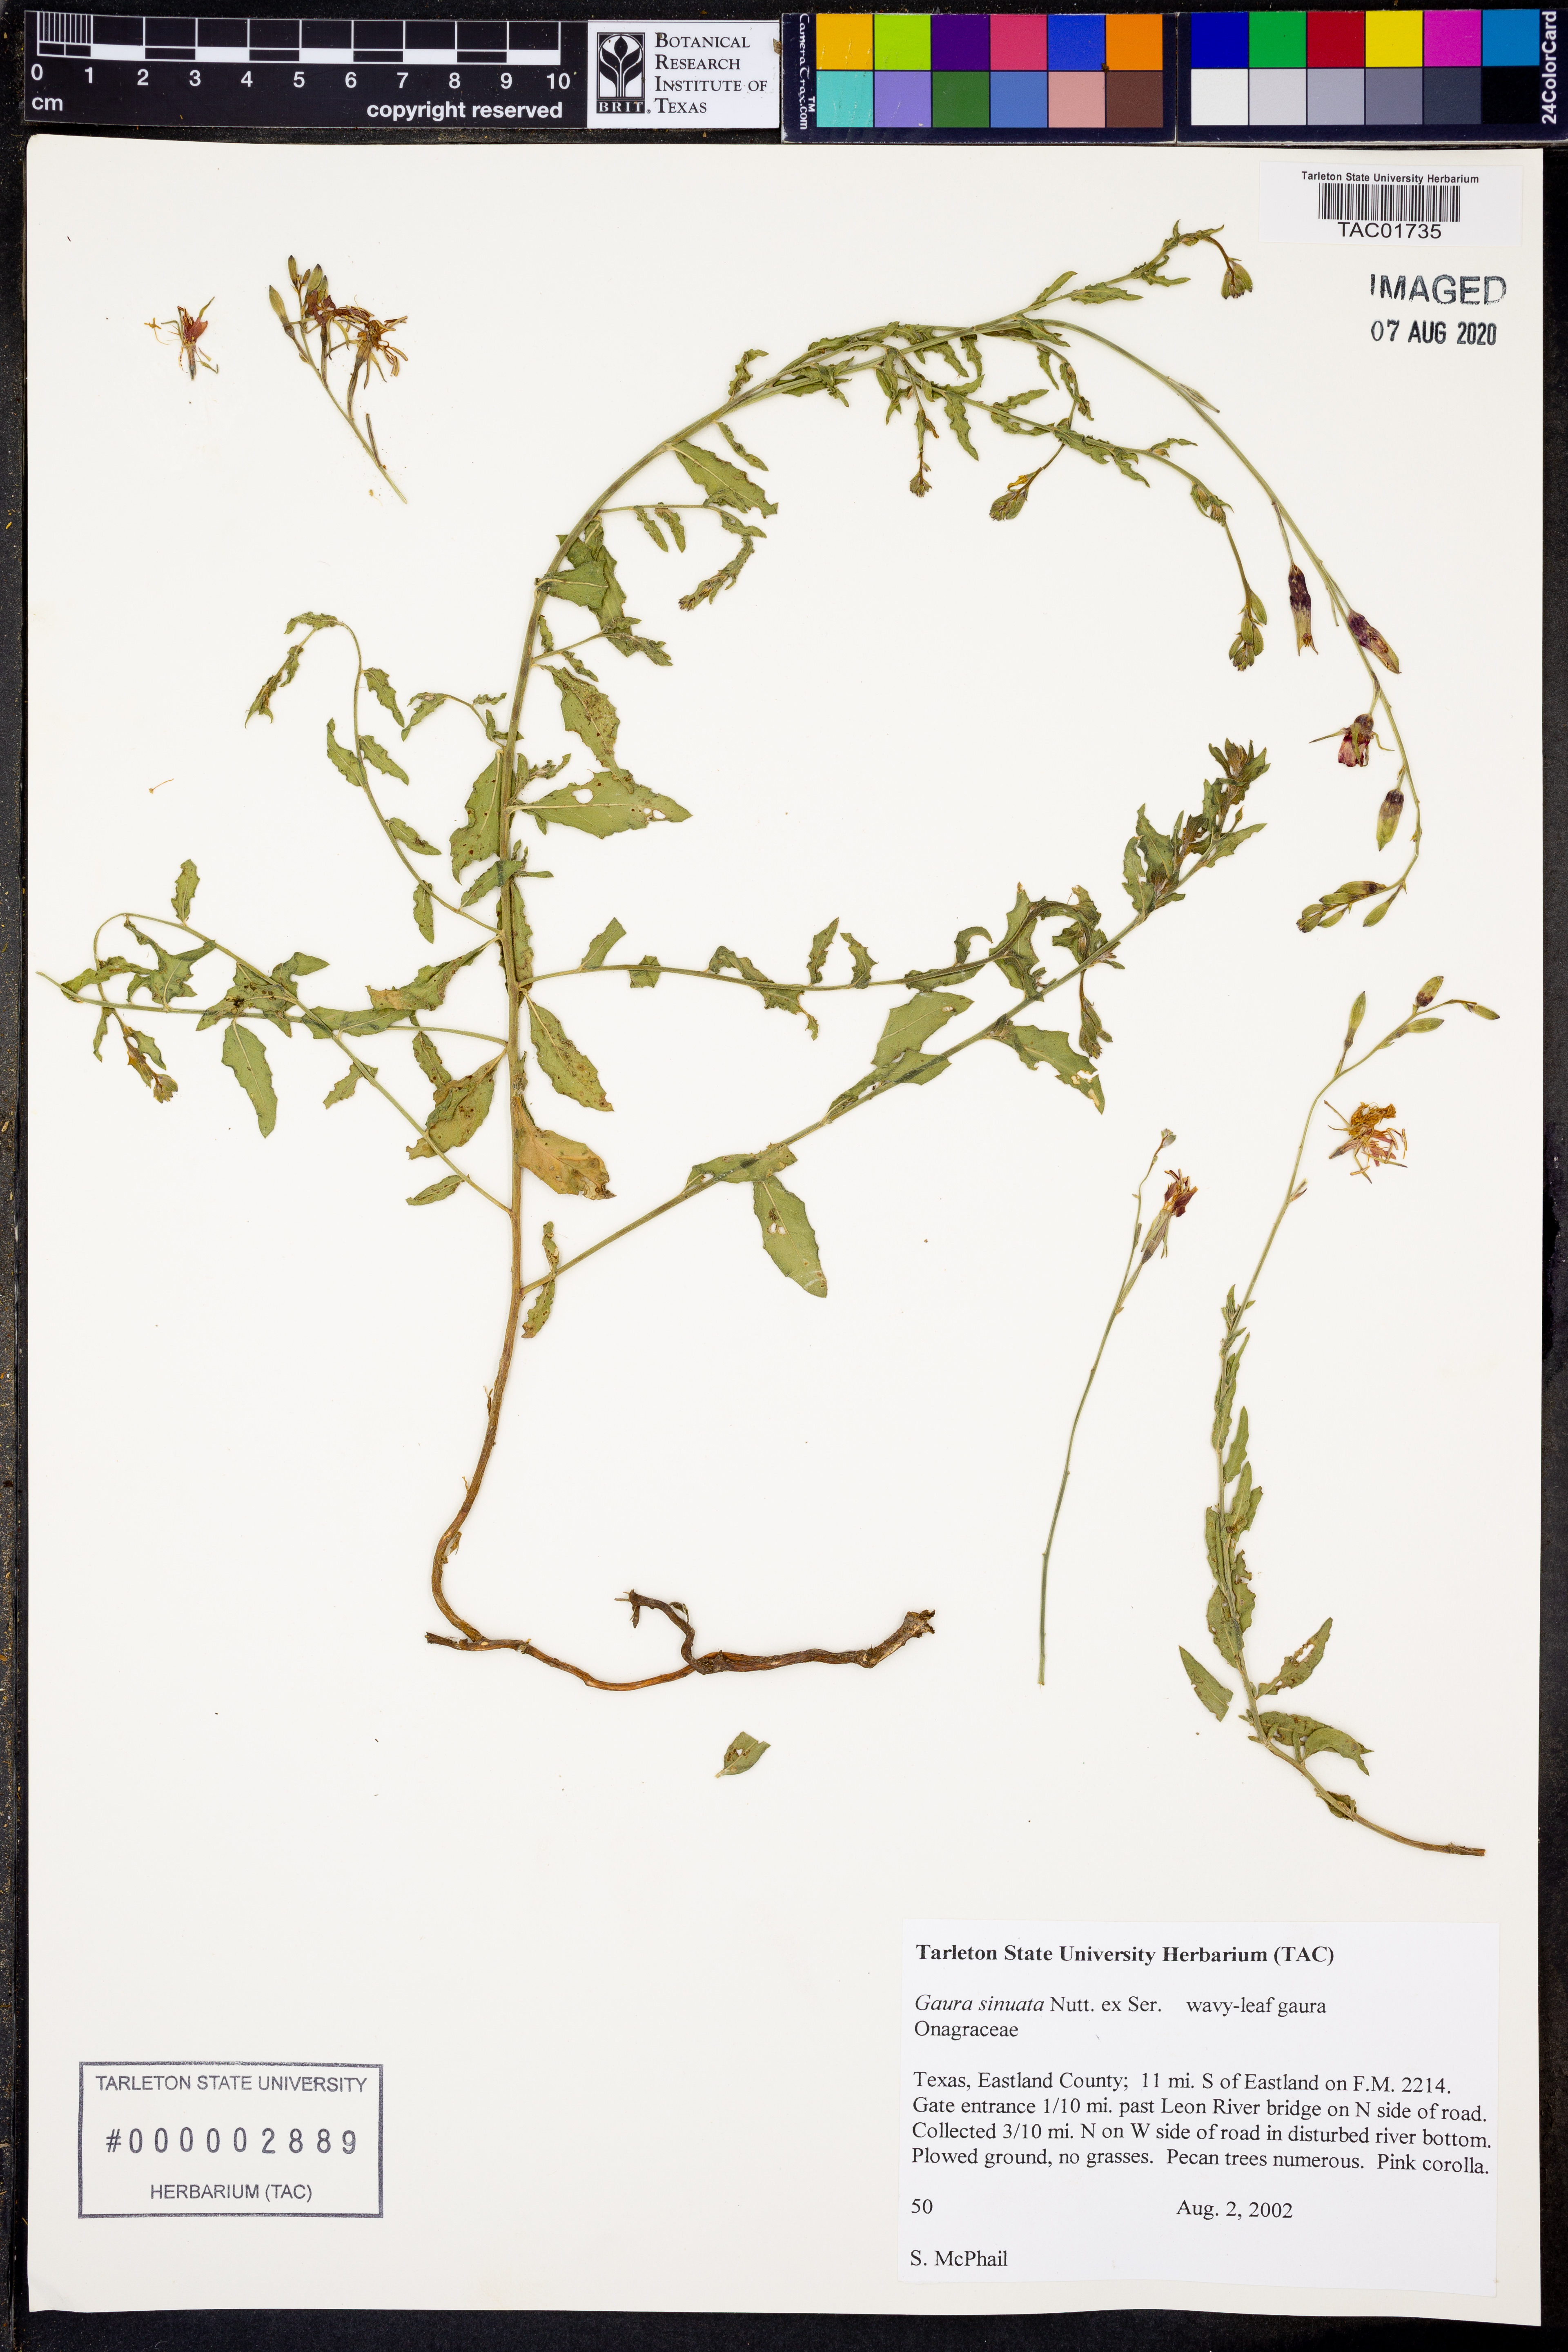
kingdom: Plantae
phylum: Tracheophyta
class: Magnoliopsida
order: Myrtales
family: Onagraceae
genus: Oenothera
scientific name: Oenothera sinuosa
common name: Wavyleaf beeblossom
